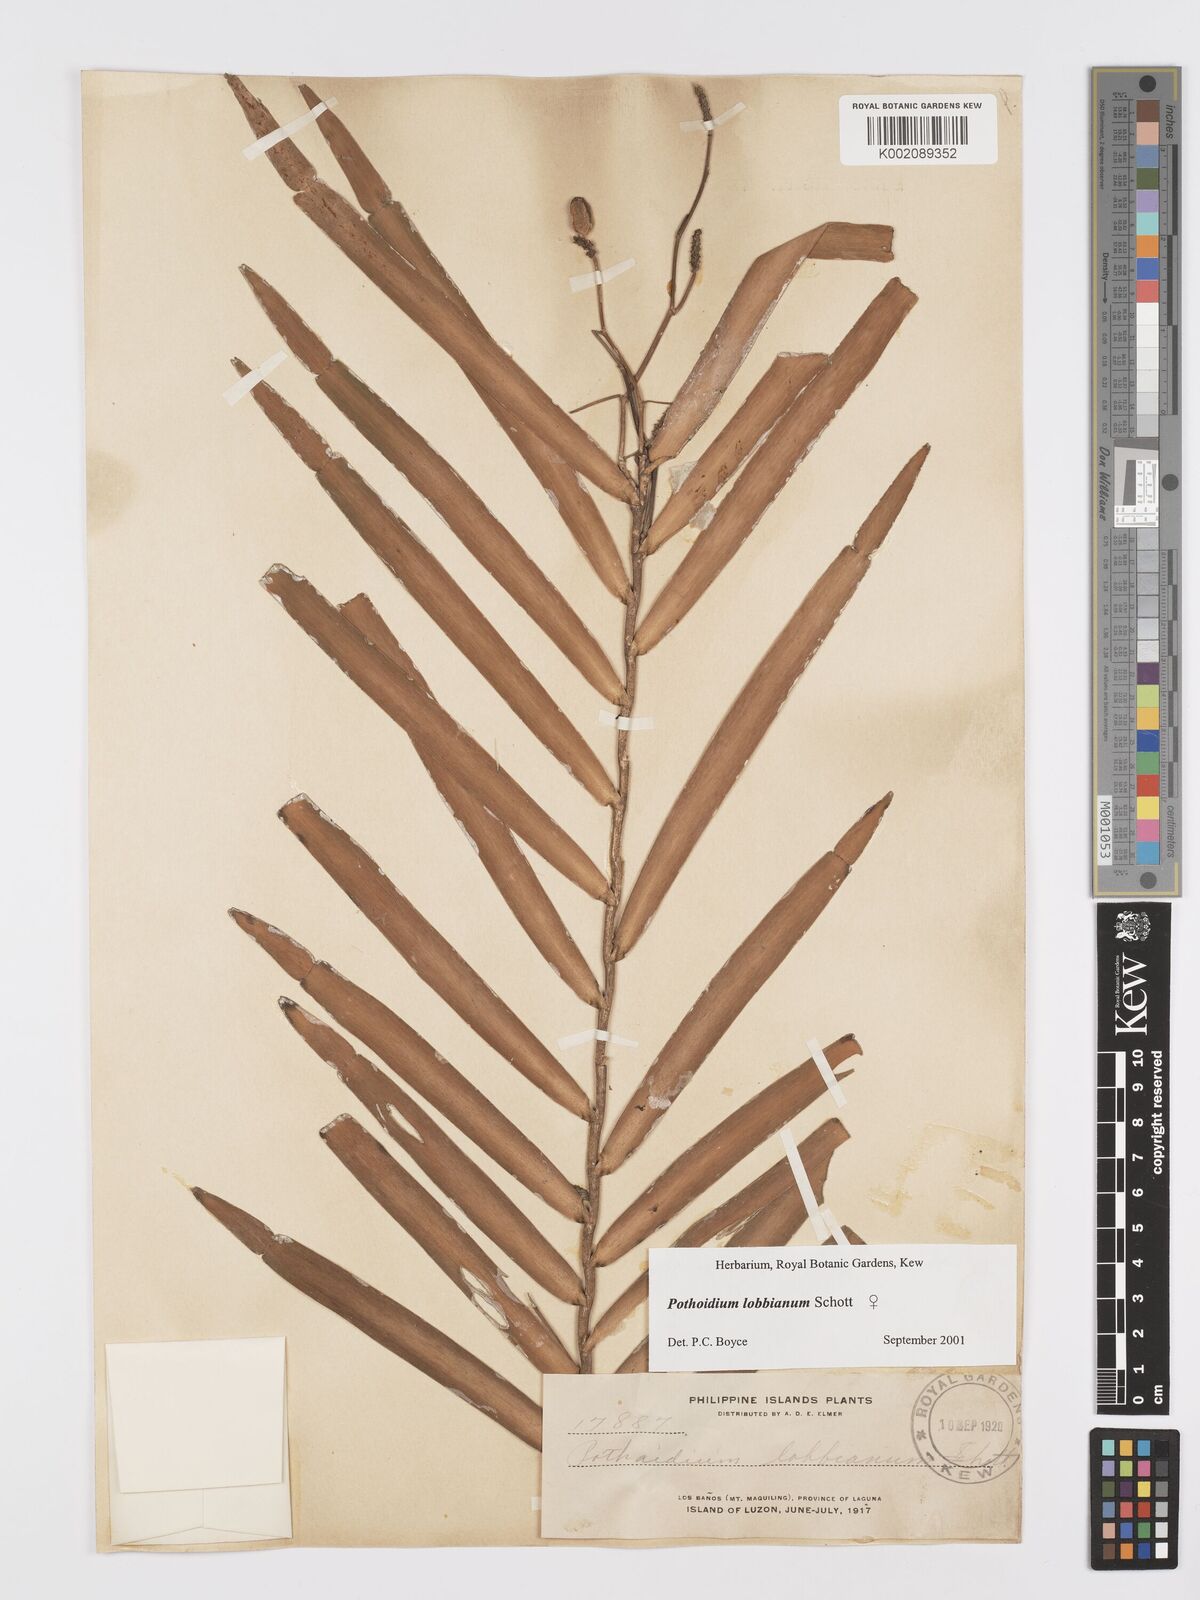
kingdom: Plantae
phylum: Tracheophyta
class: Liliopsida
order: Alismatales
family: Araceae
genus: Pothoidium
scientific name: Pothoidium lobbianum
